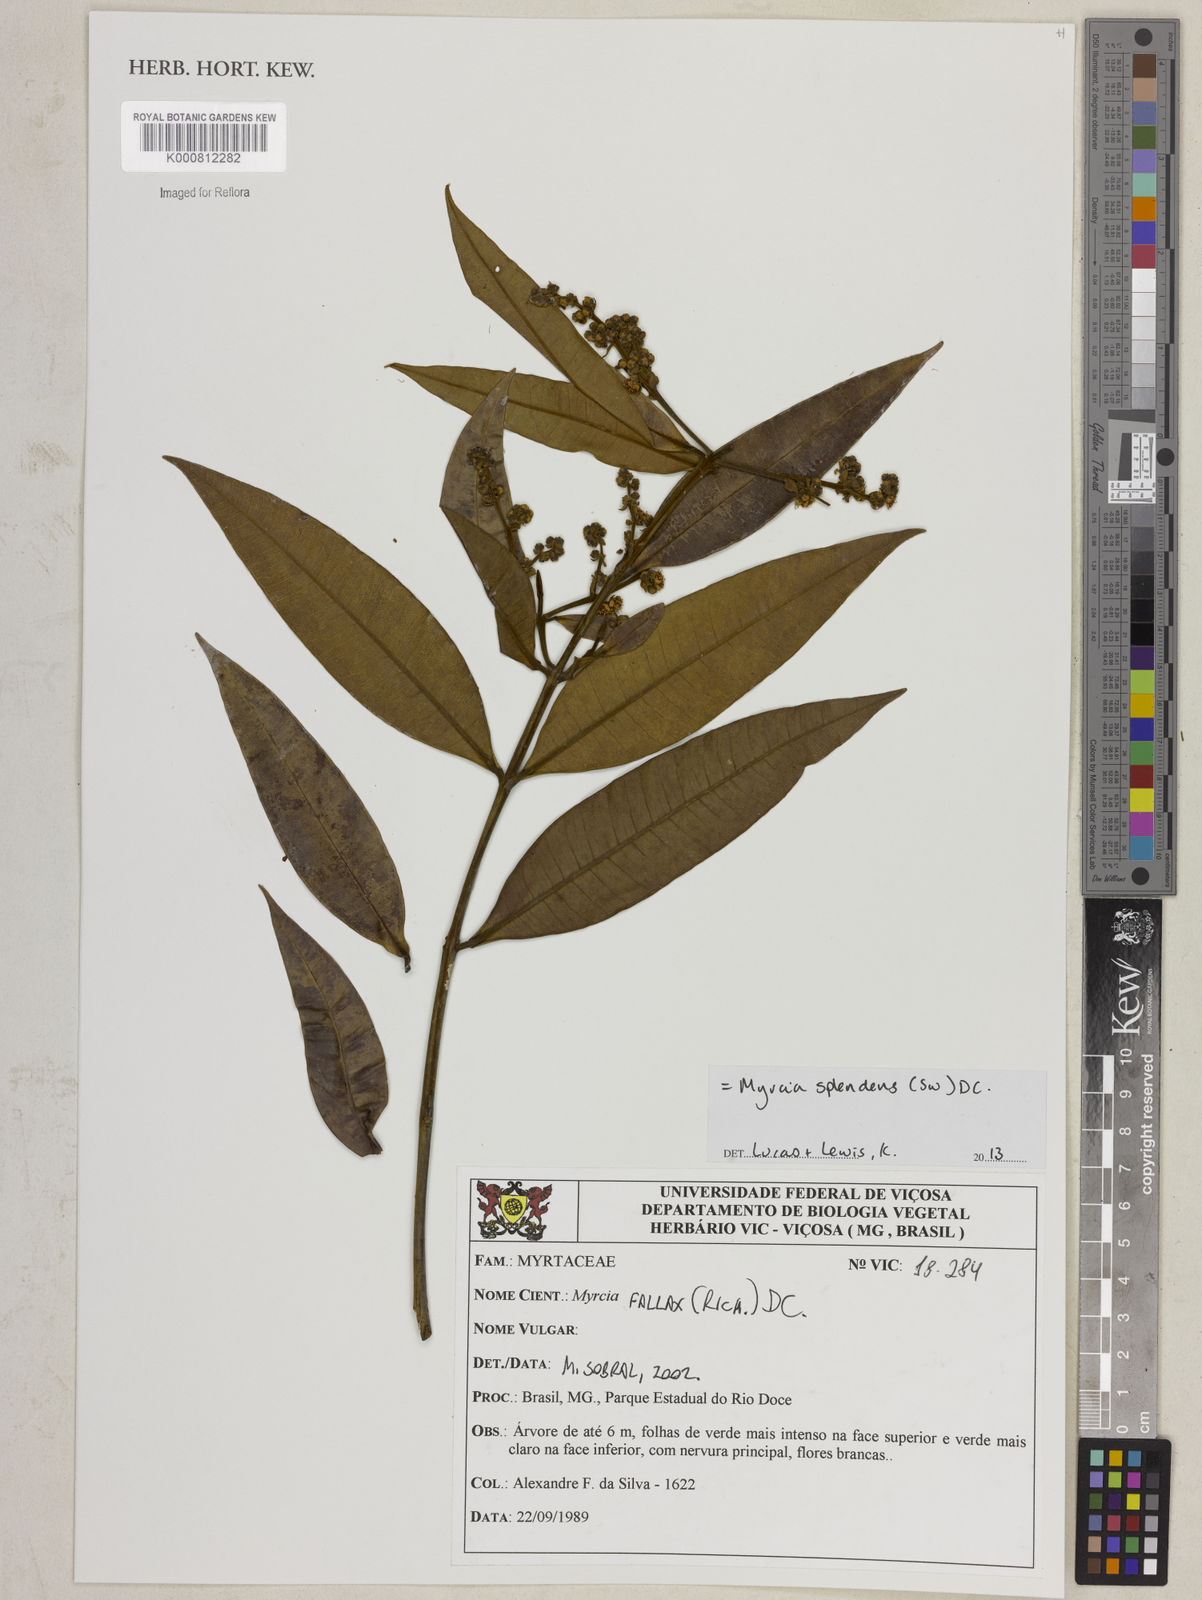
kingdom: Plantae
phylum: Tracheophyta
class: Magnoliopsida
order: Myrtales
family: Myrtaceae
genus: Myrcia
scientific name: Myrcia splendens
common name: Surinam cherry
